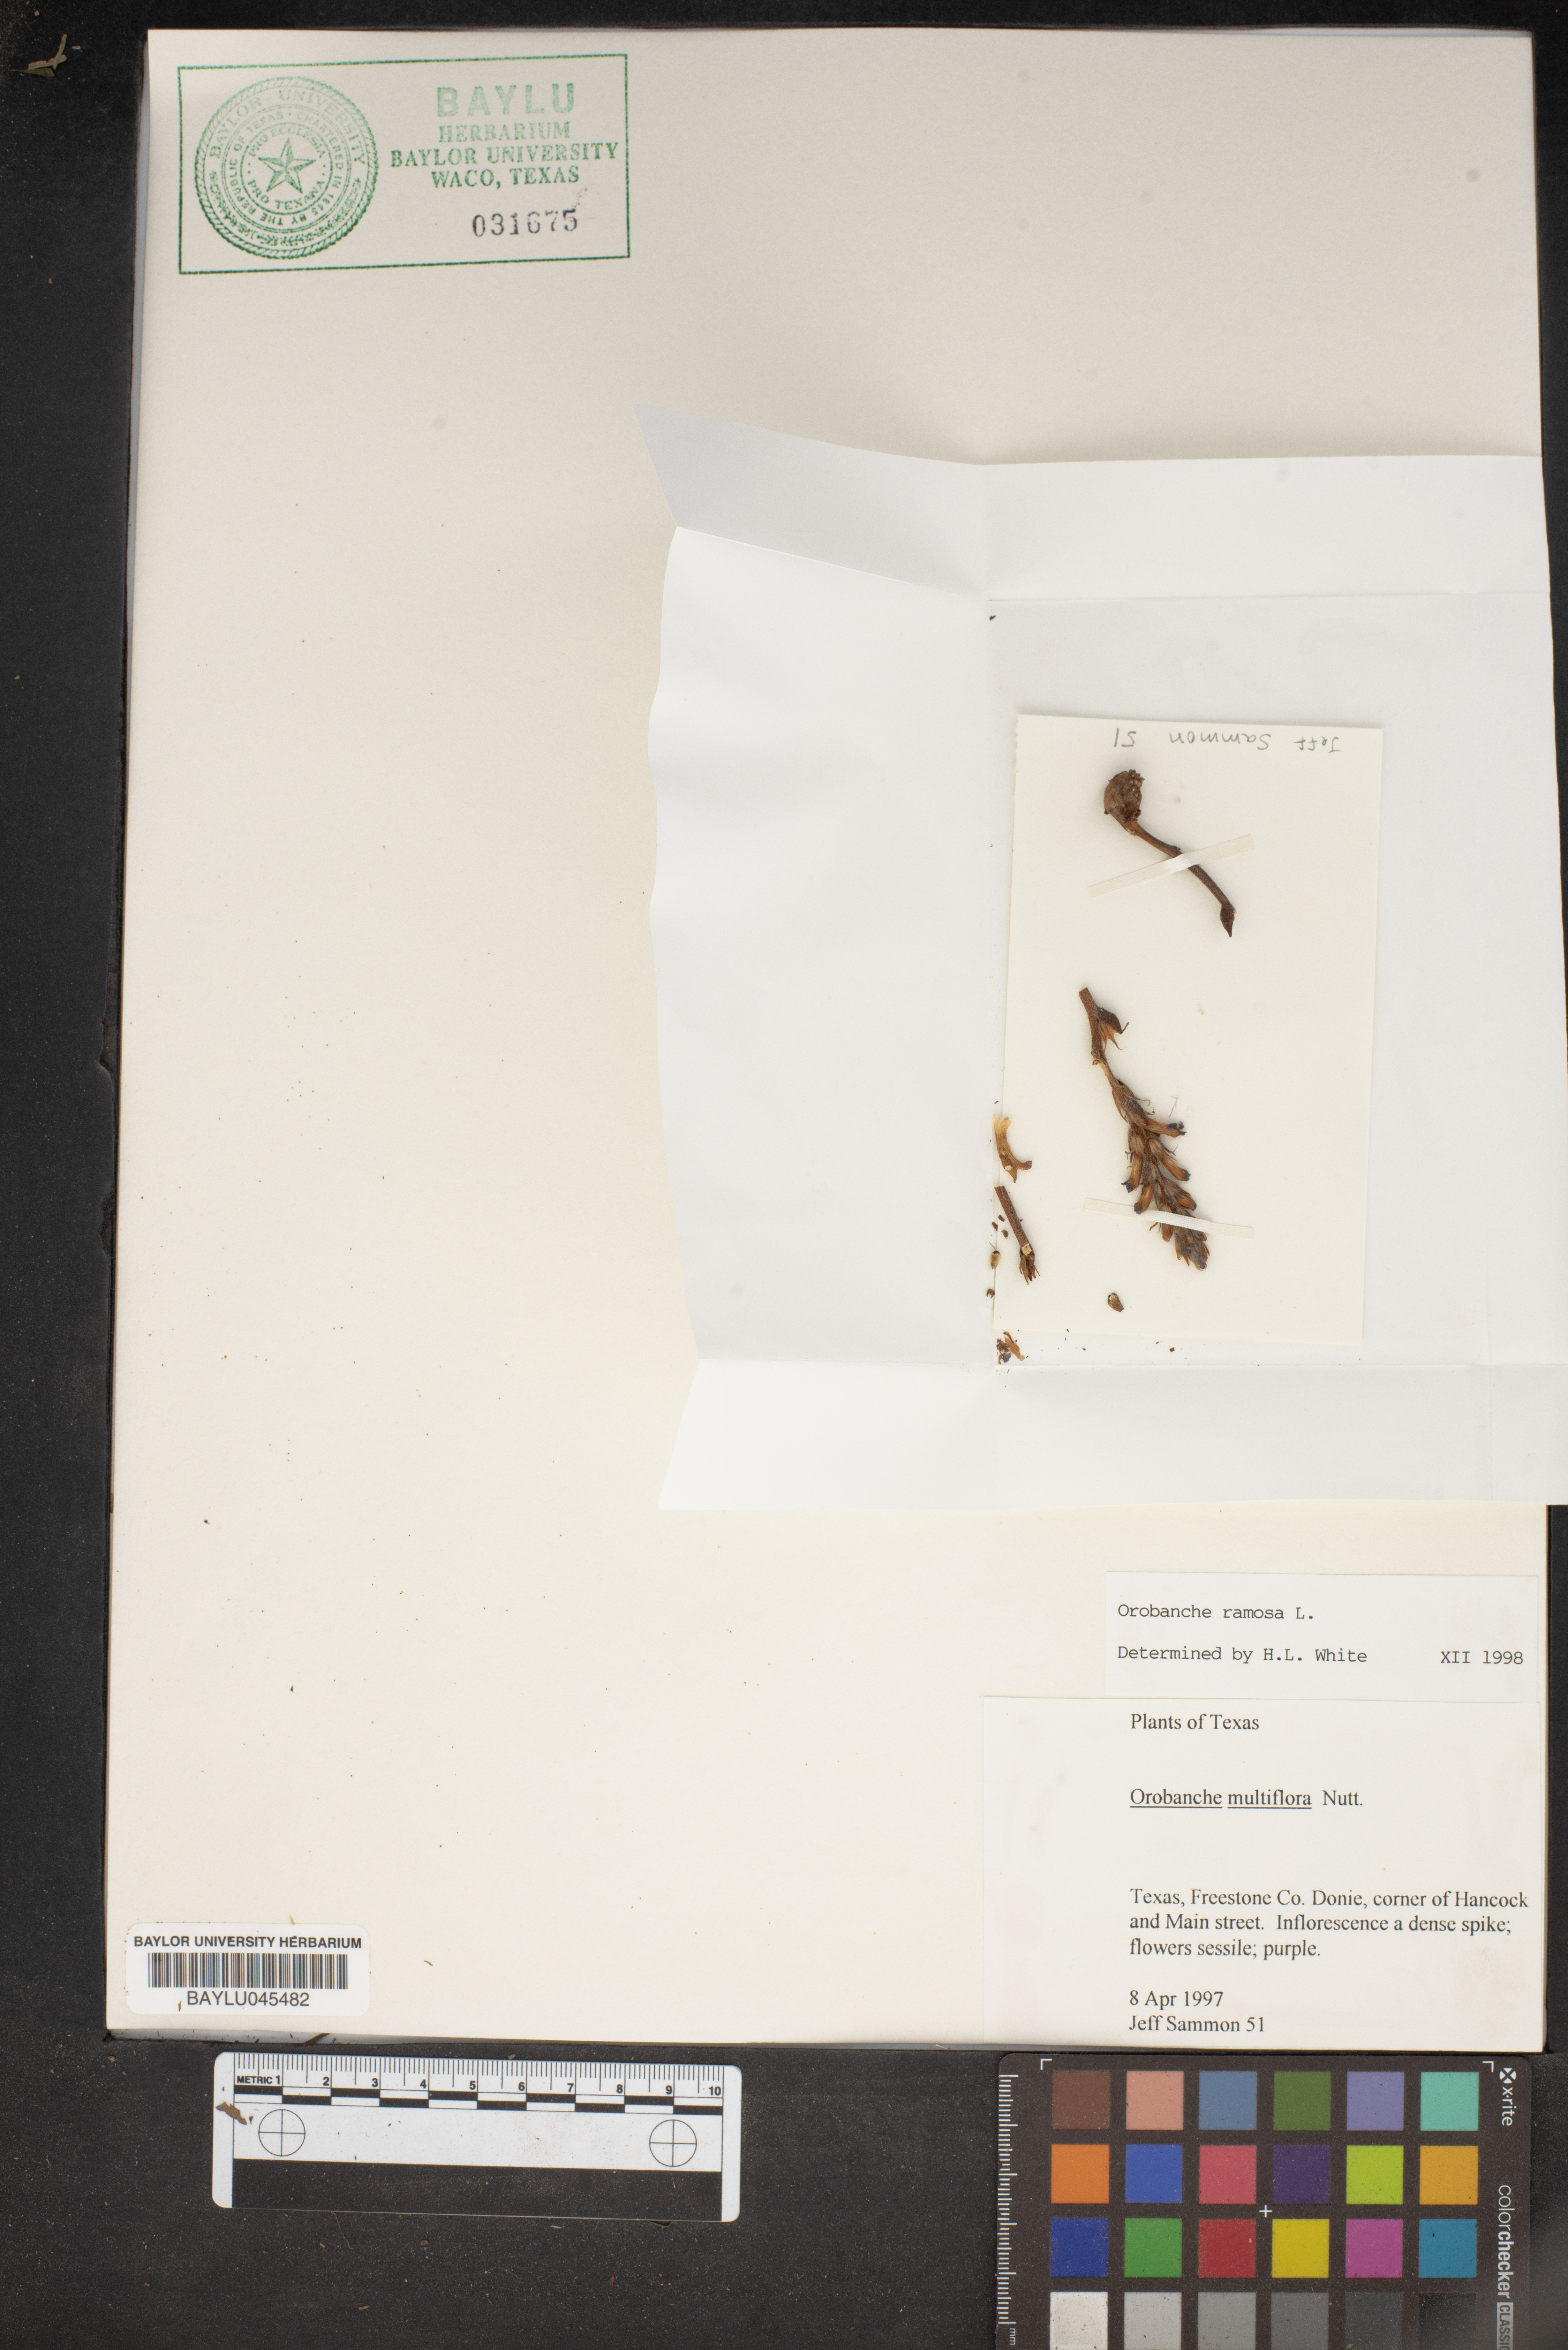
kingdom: Plantae
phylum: Tracheophyta
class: Magnoliopsida
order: Lamiales
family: Orobanchaceae
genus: Phelipanche
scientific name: Phelipanche ramosa
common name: Branched broomrape
